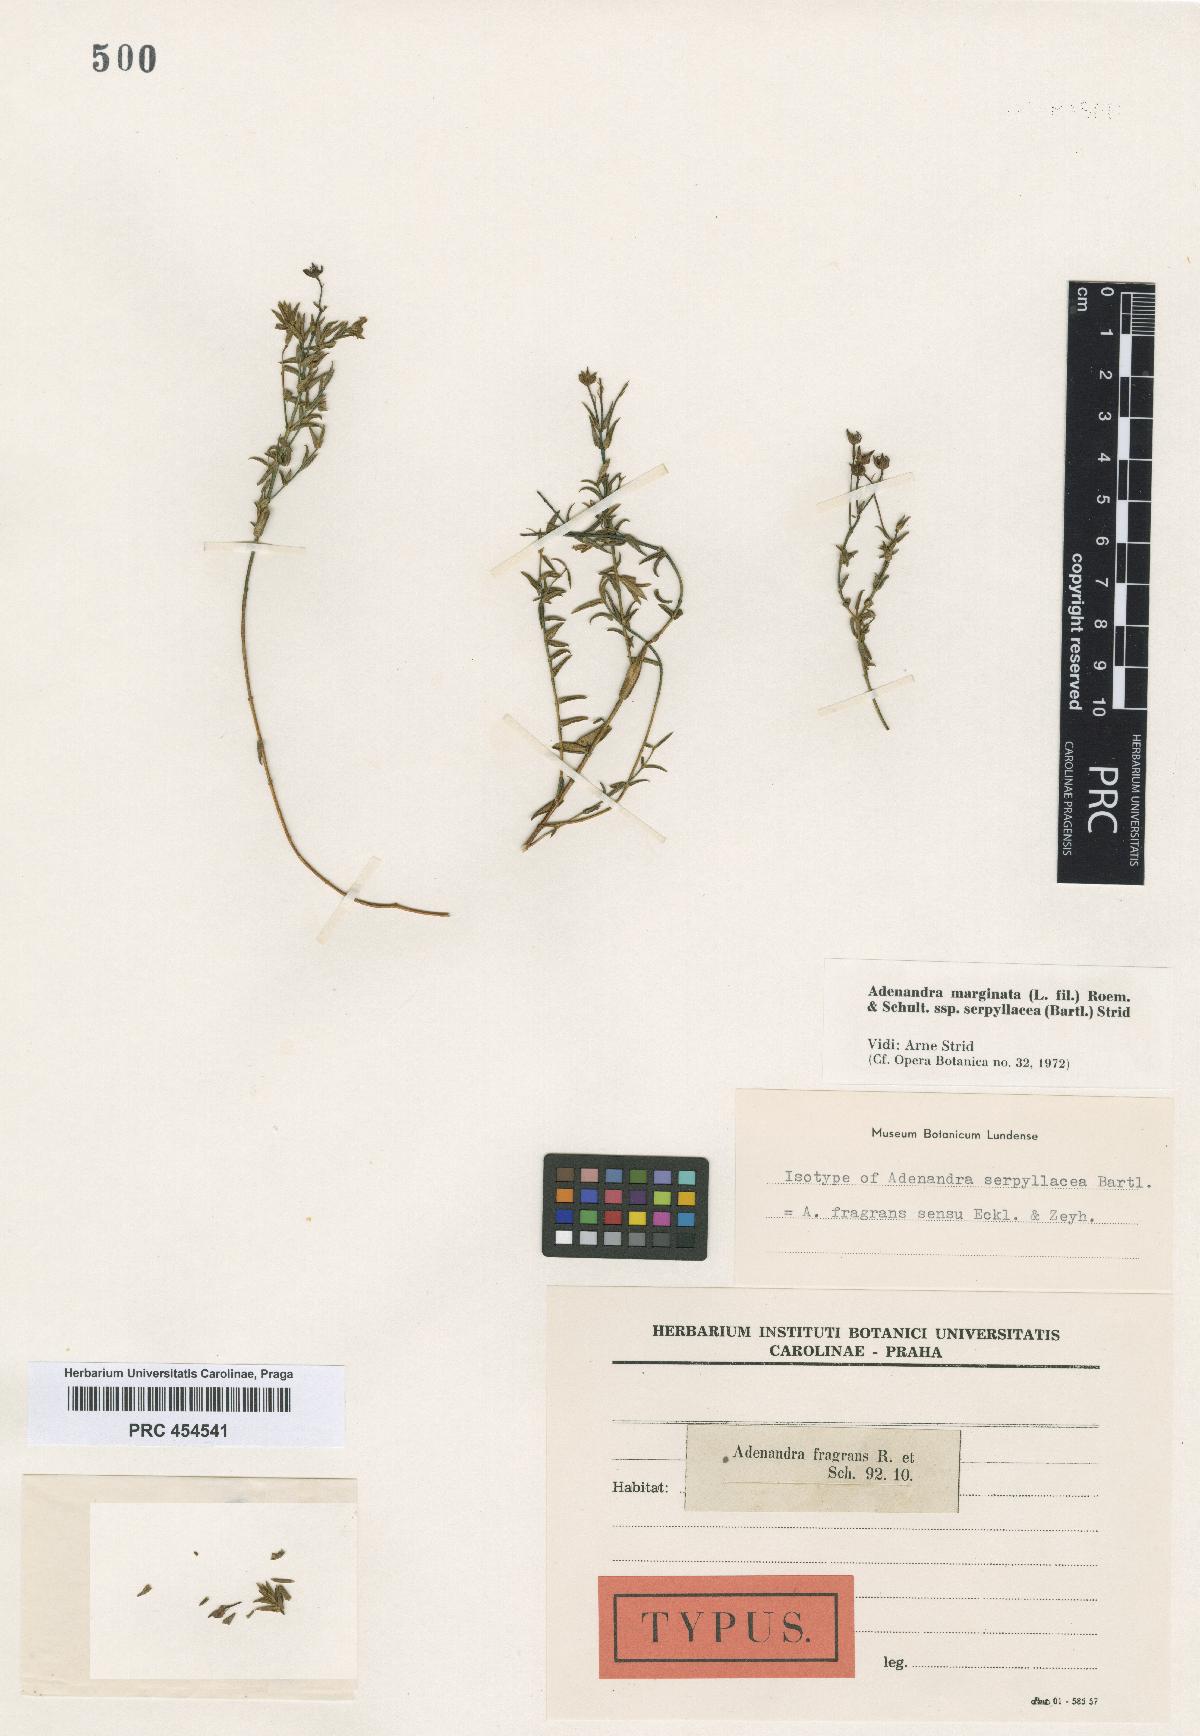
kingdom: Plantae
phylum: Tracheophyta
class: Magnoliopsida
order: Sapindales
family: Rutaceae
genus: Adenandra
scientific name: Adenandra fragrans
